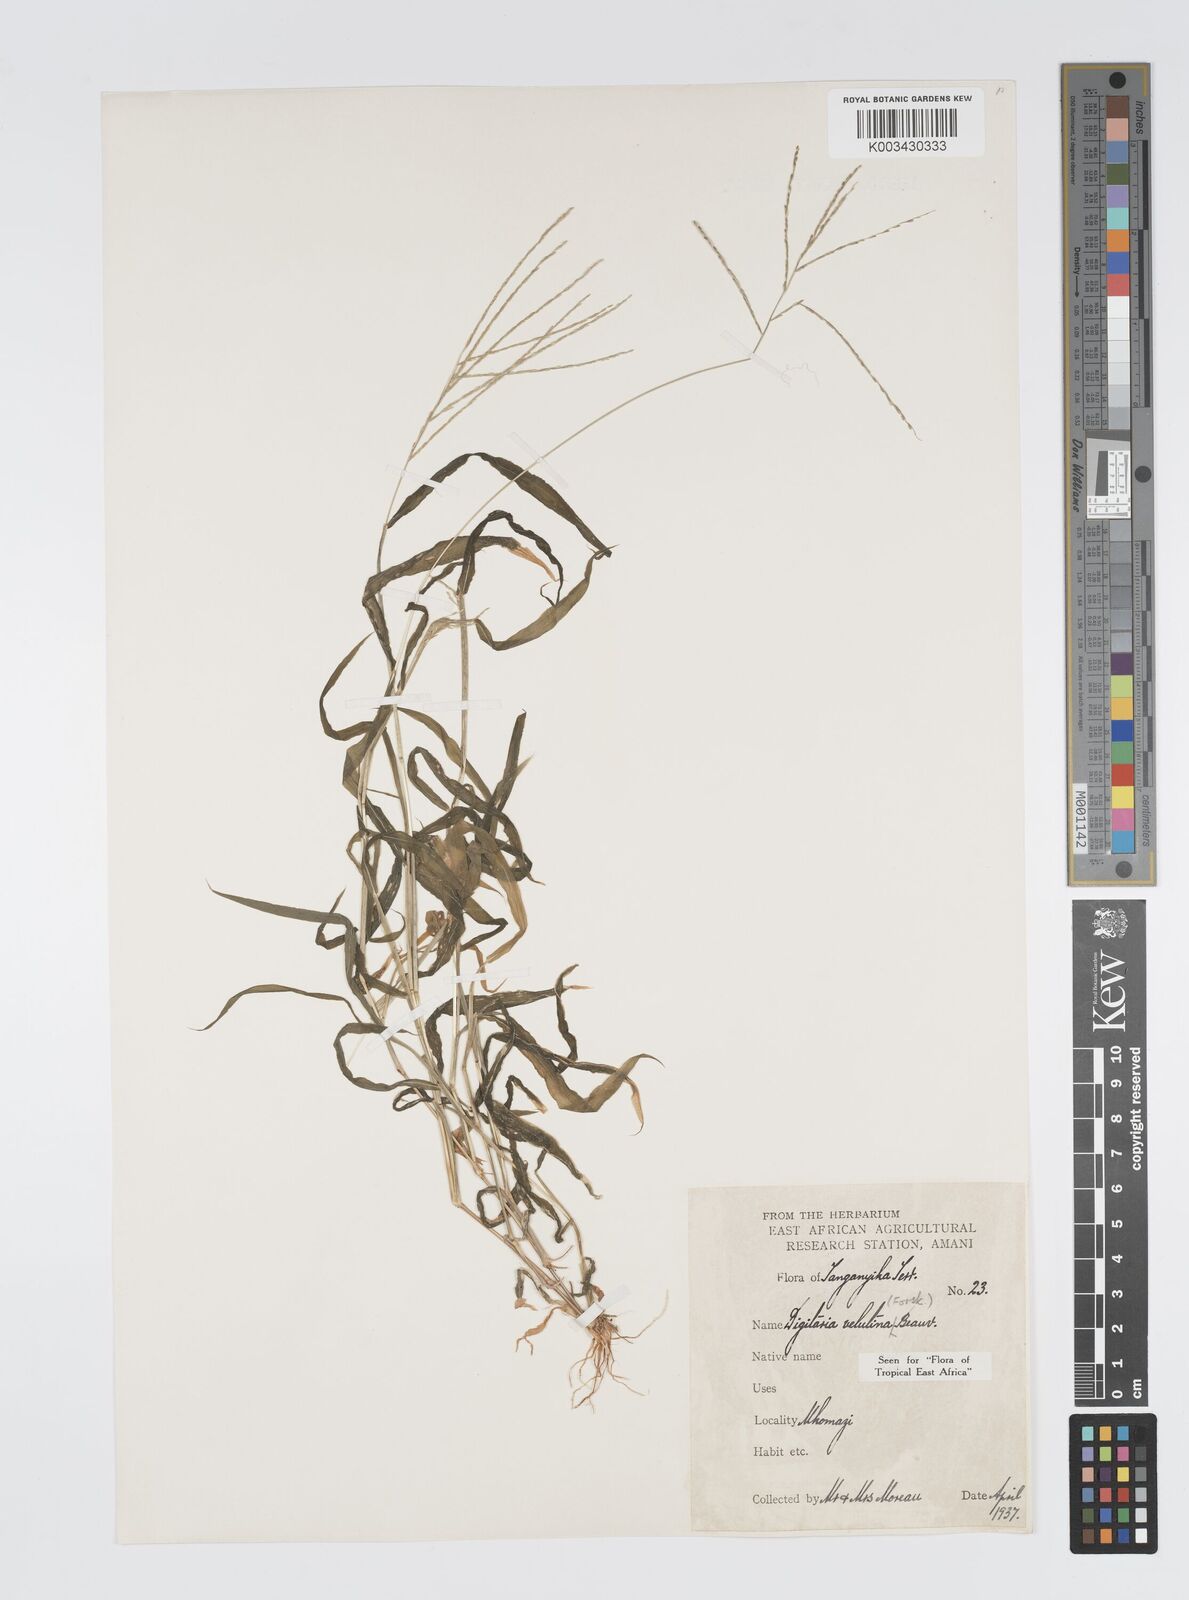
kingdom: Plantae
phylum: Tracheophyta
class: Liliopsida
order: Poales
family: Poaceae
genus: Digitaria
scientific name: Digitaria velutina
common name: Long-plume finger grass
